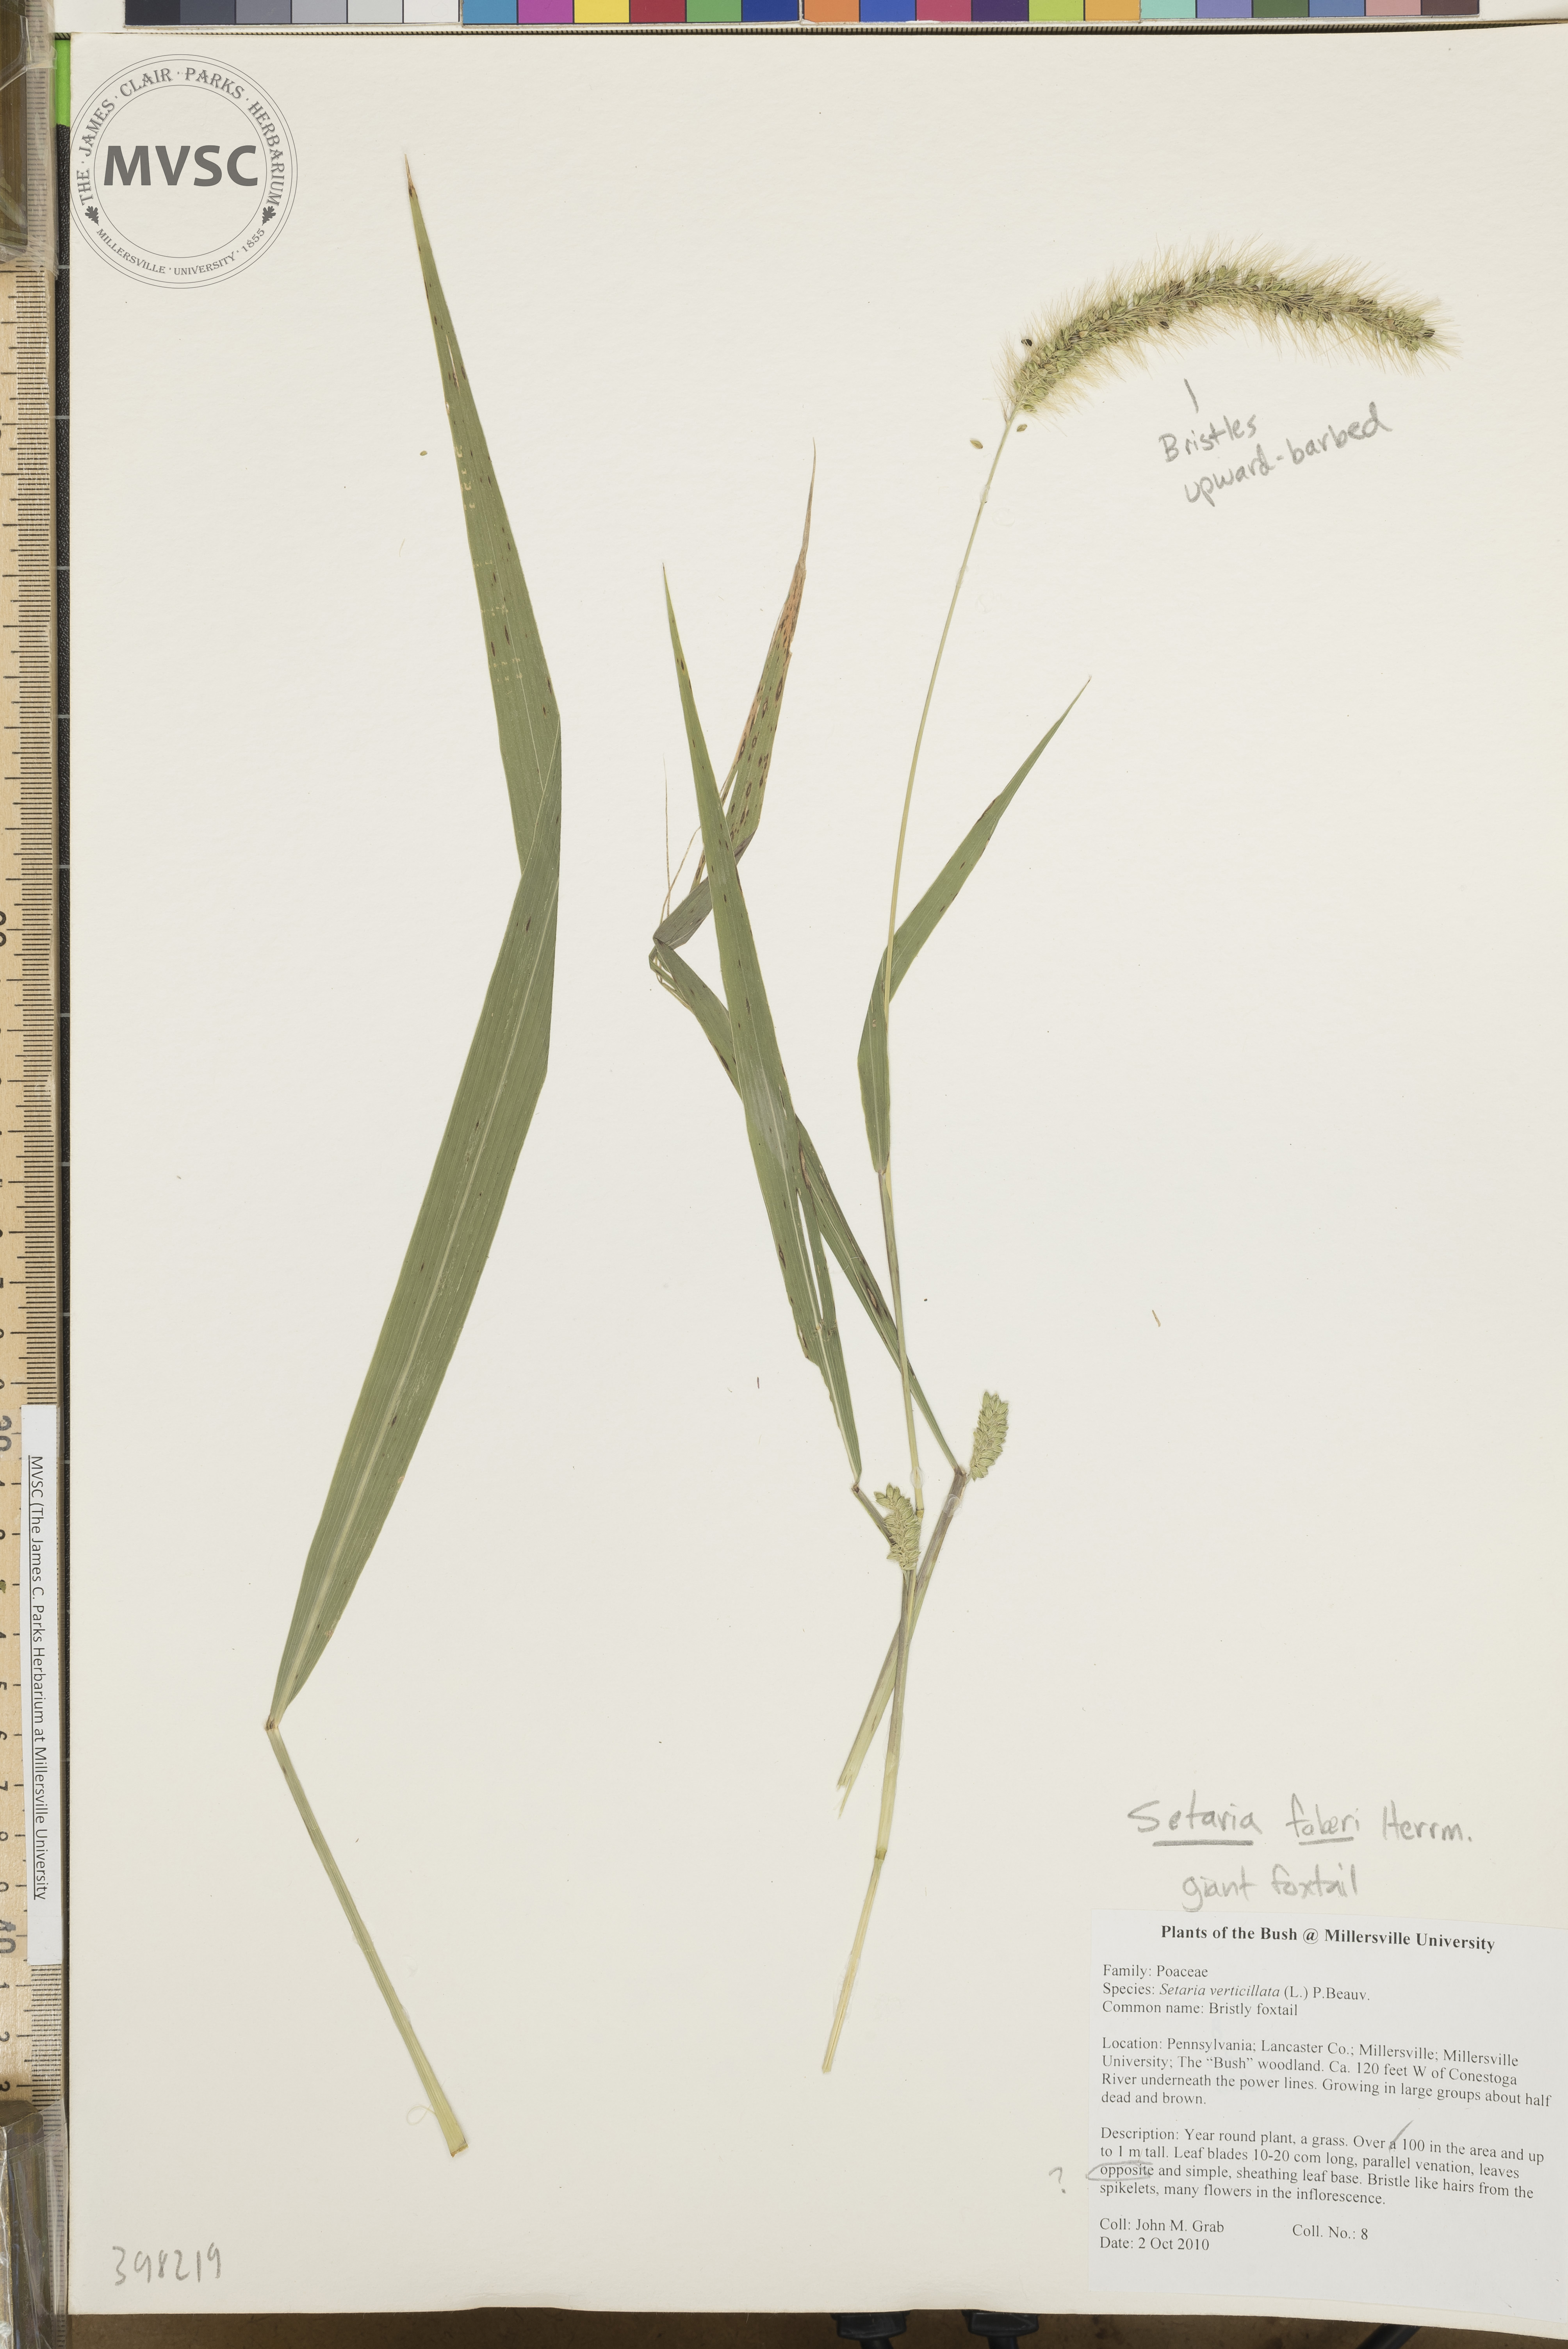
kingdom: Plantae
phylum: Tracheophyta
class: Liliopsida
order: Poales
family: Poaceae
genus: Setaria
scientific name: Setaria faberi
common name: Giant foxtail
